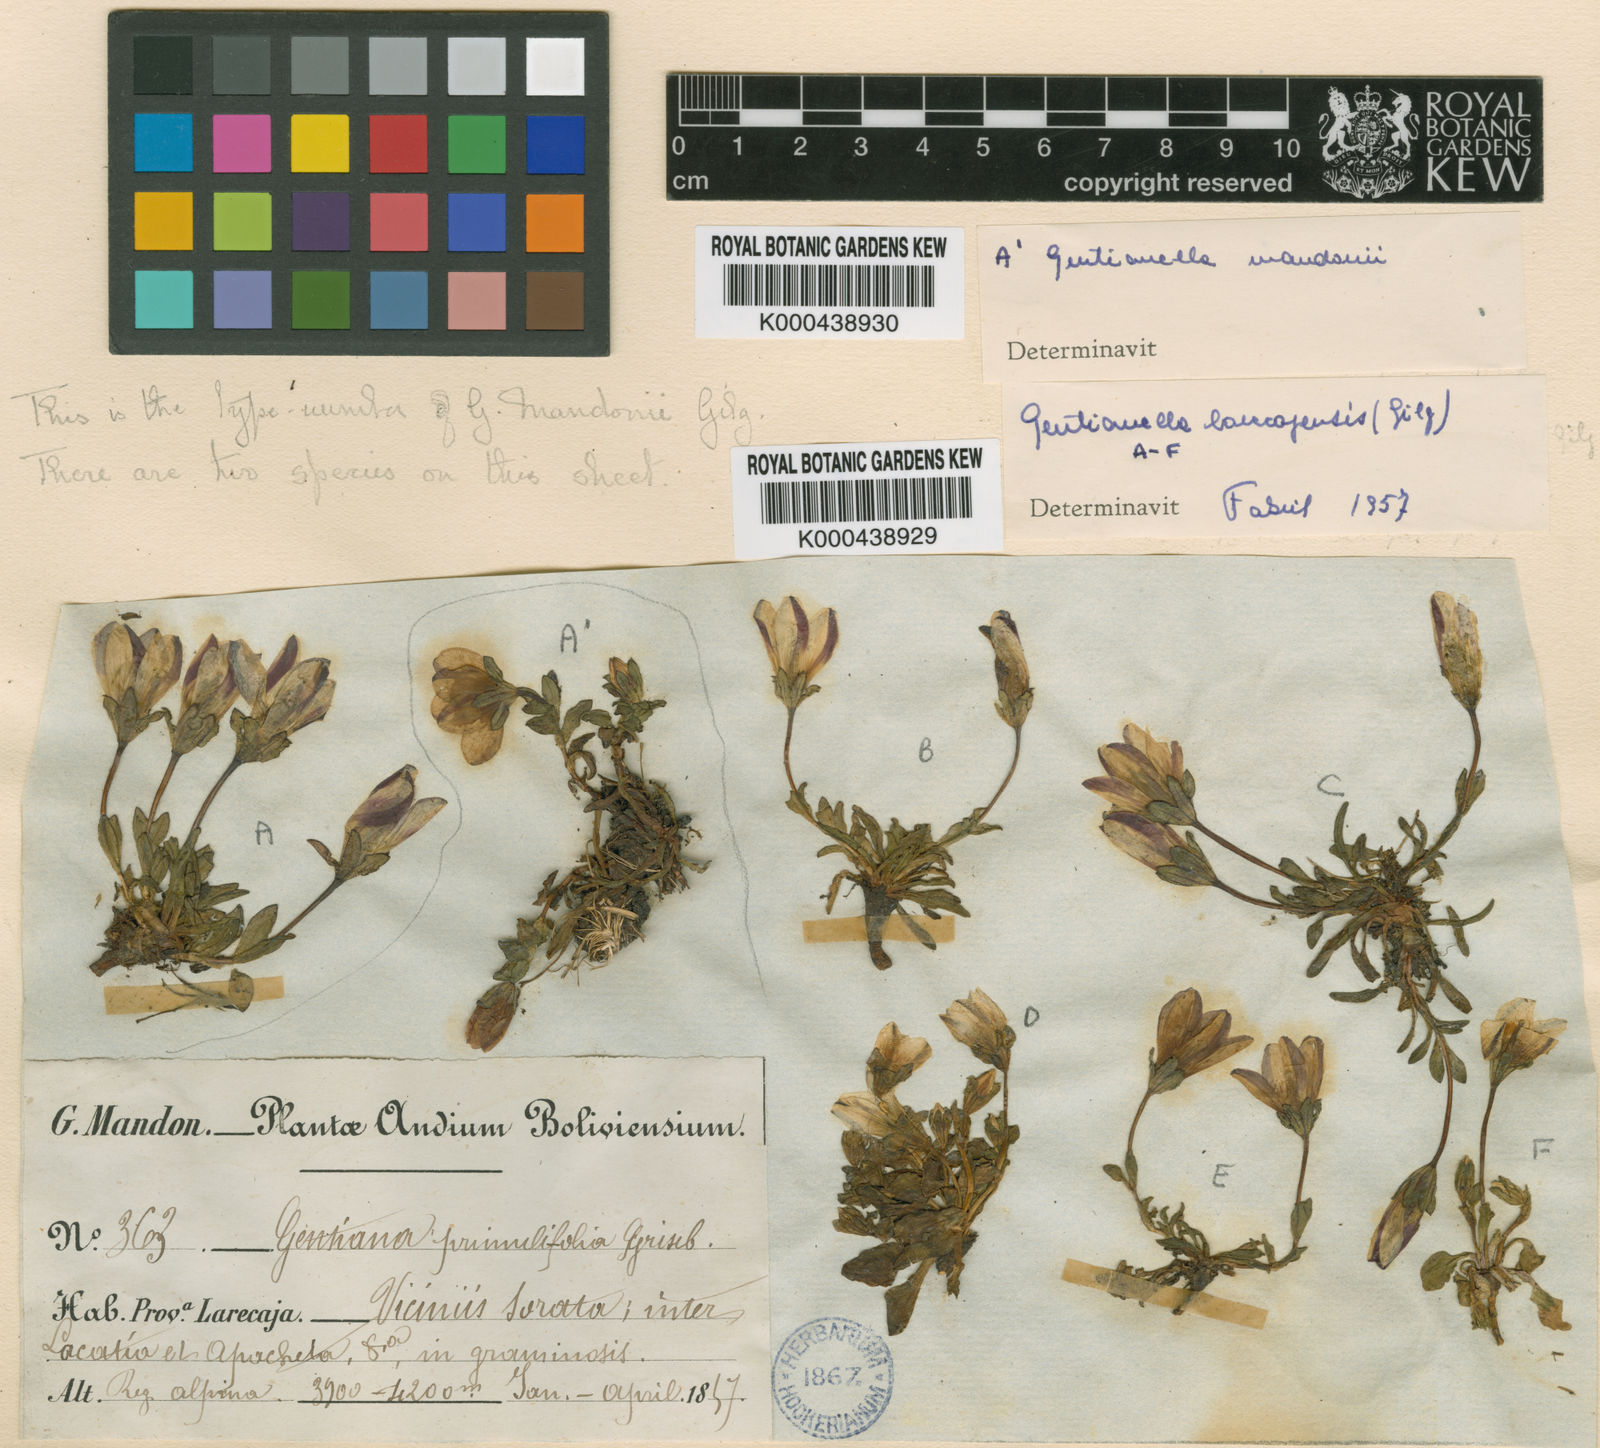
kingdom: Plantae
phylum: Tracheophyta
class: Magnoliopsida
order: Gentianales
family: Gentianaceae
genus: Gentianella
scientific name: Gentianella larecajensis
